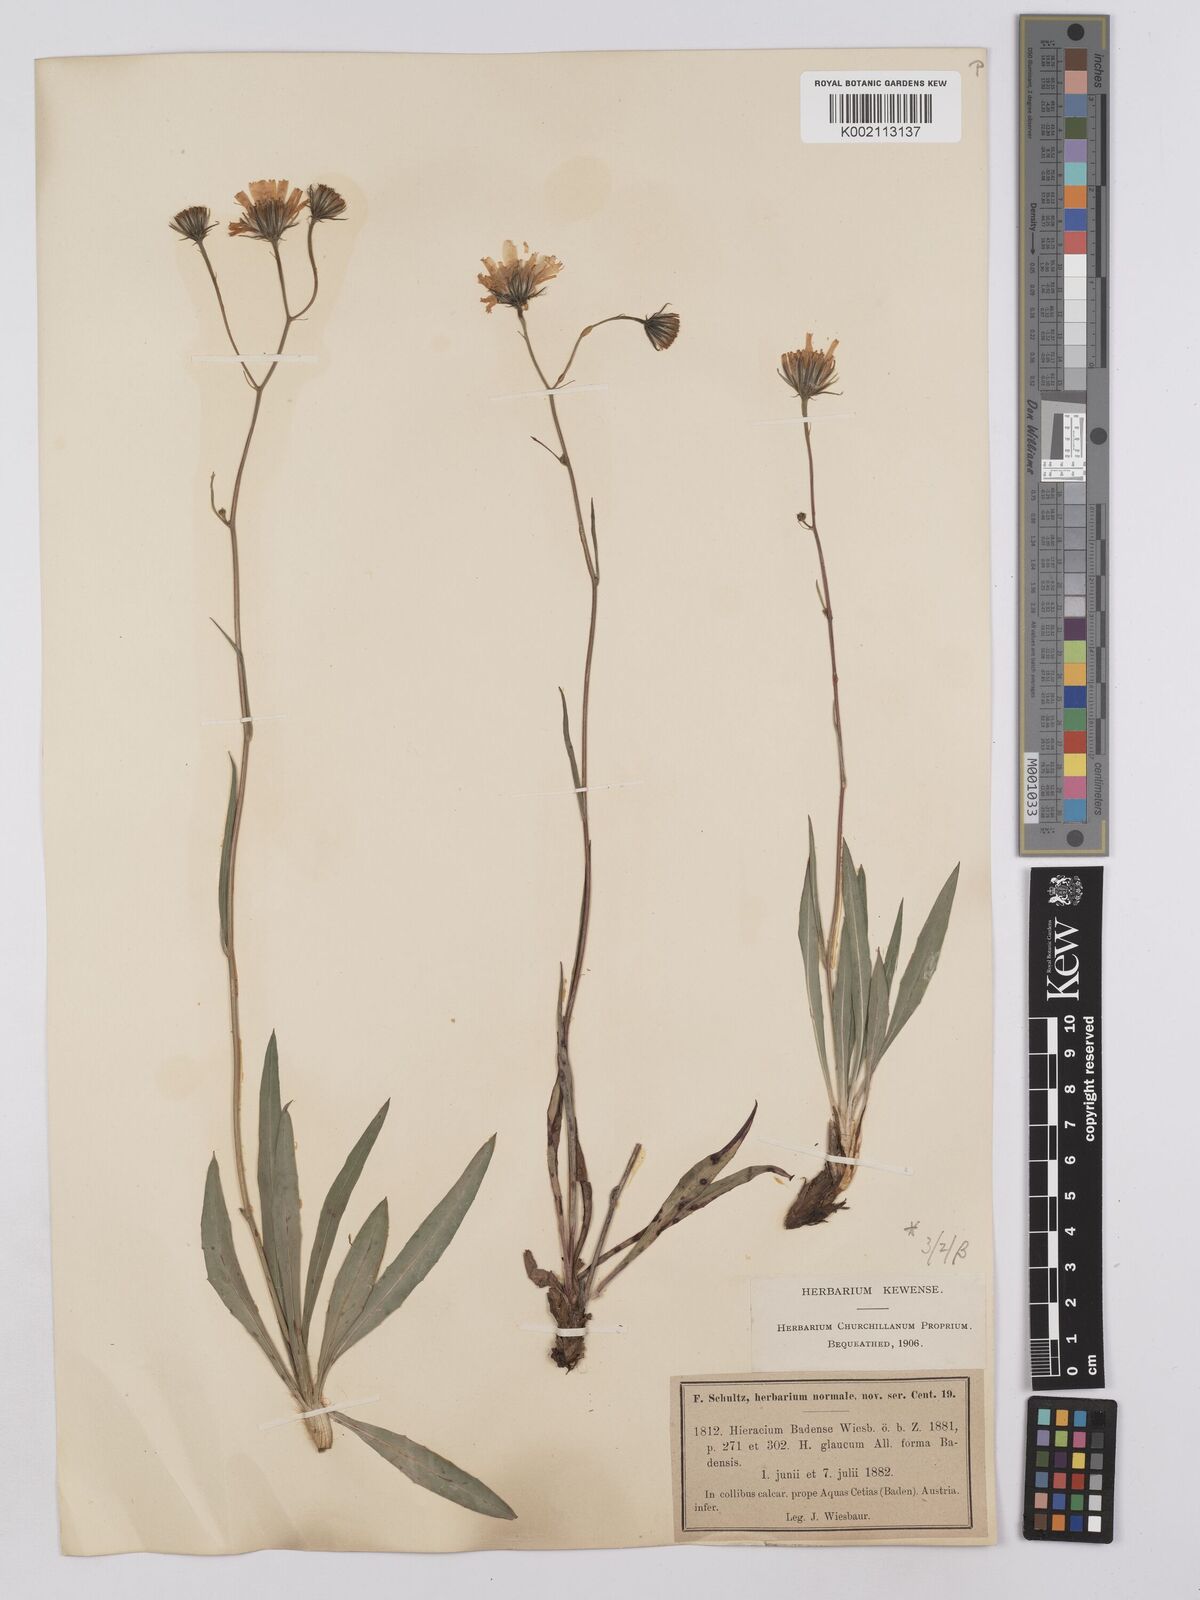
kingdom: Plantae
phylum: Tracheophyta
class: Magnoliopsida
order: Asterales
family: Asteraceae
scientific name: Asteraceae
